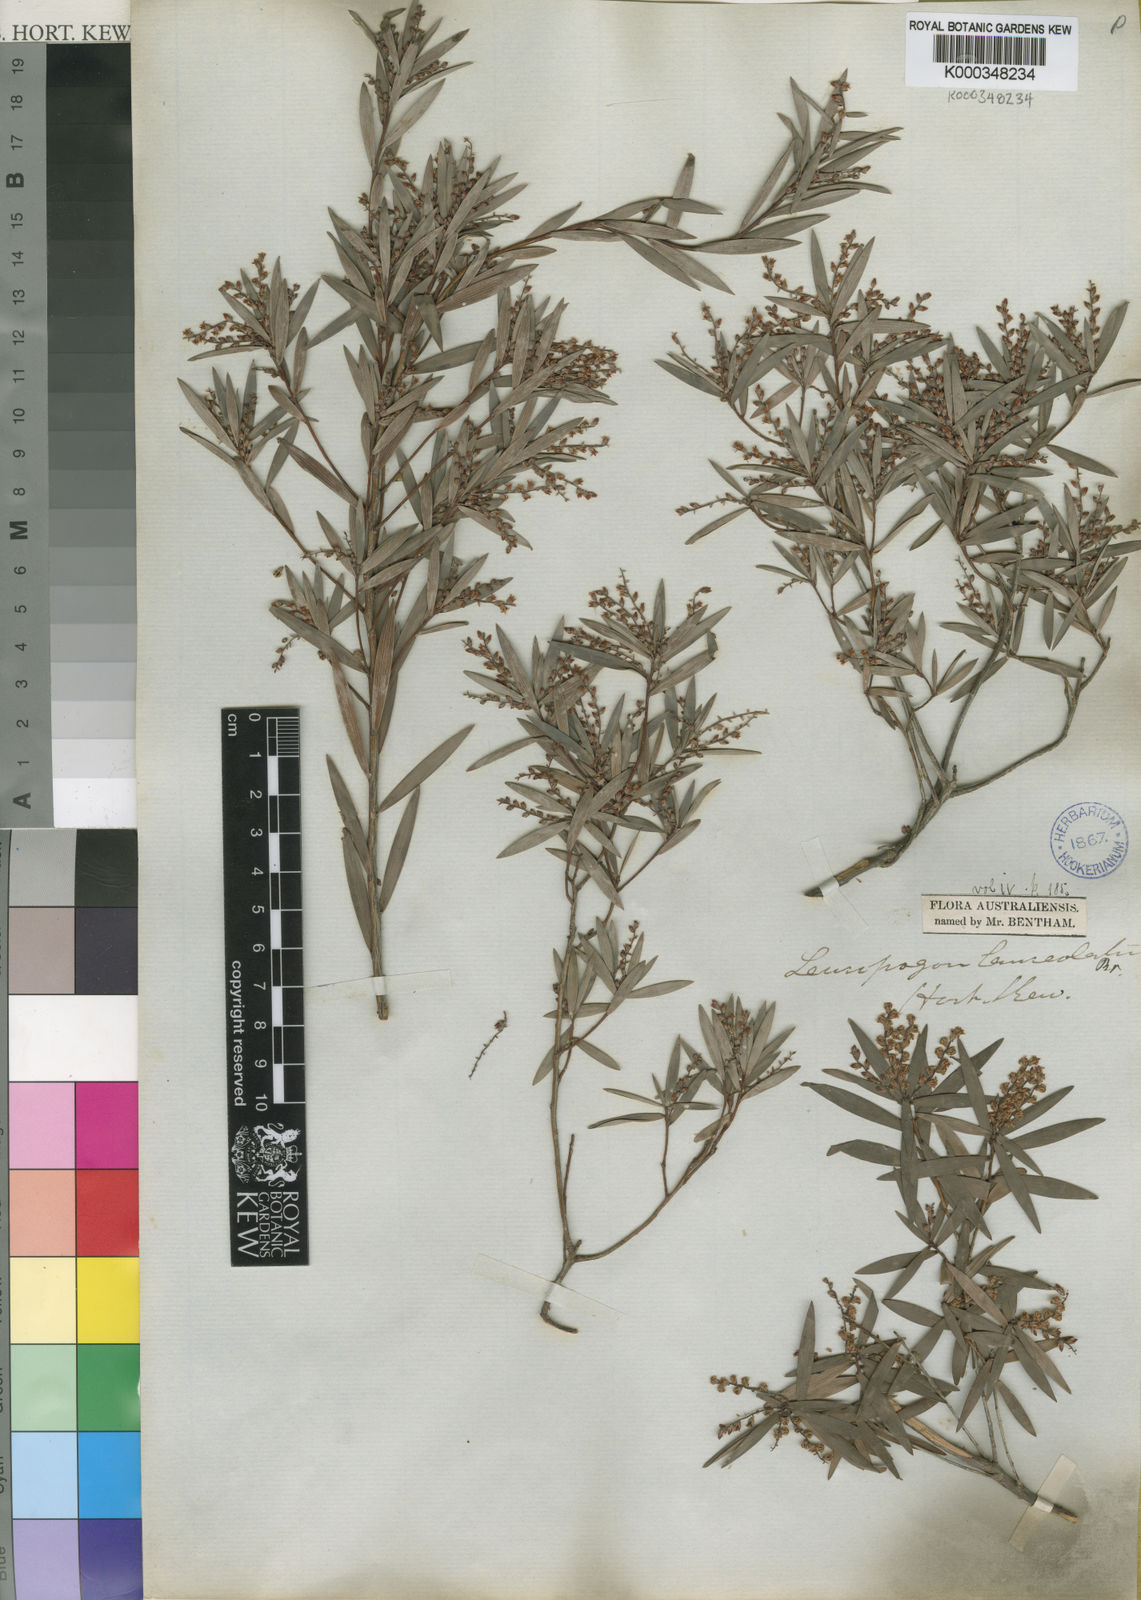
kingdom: Plantae
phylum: Tracheophyta
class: Magnoliopsida
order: Ericales
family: Ericaceae
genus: Leucopogon
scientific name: Leucopogon lanceolatus
